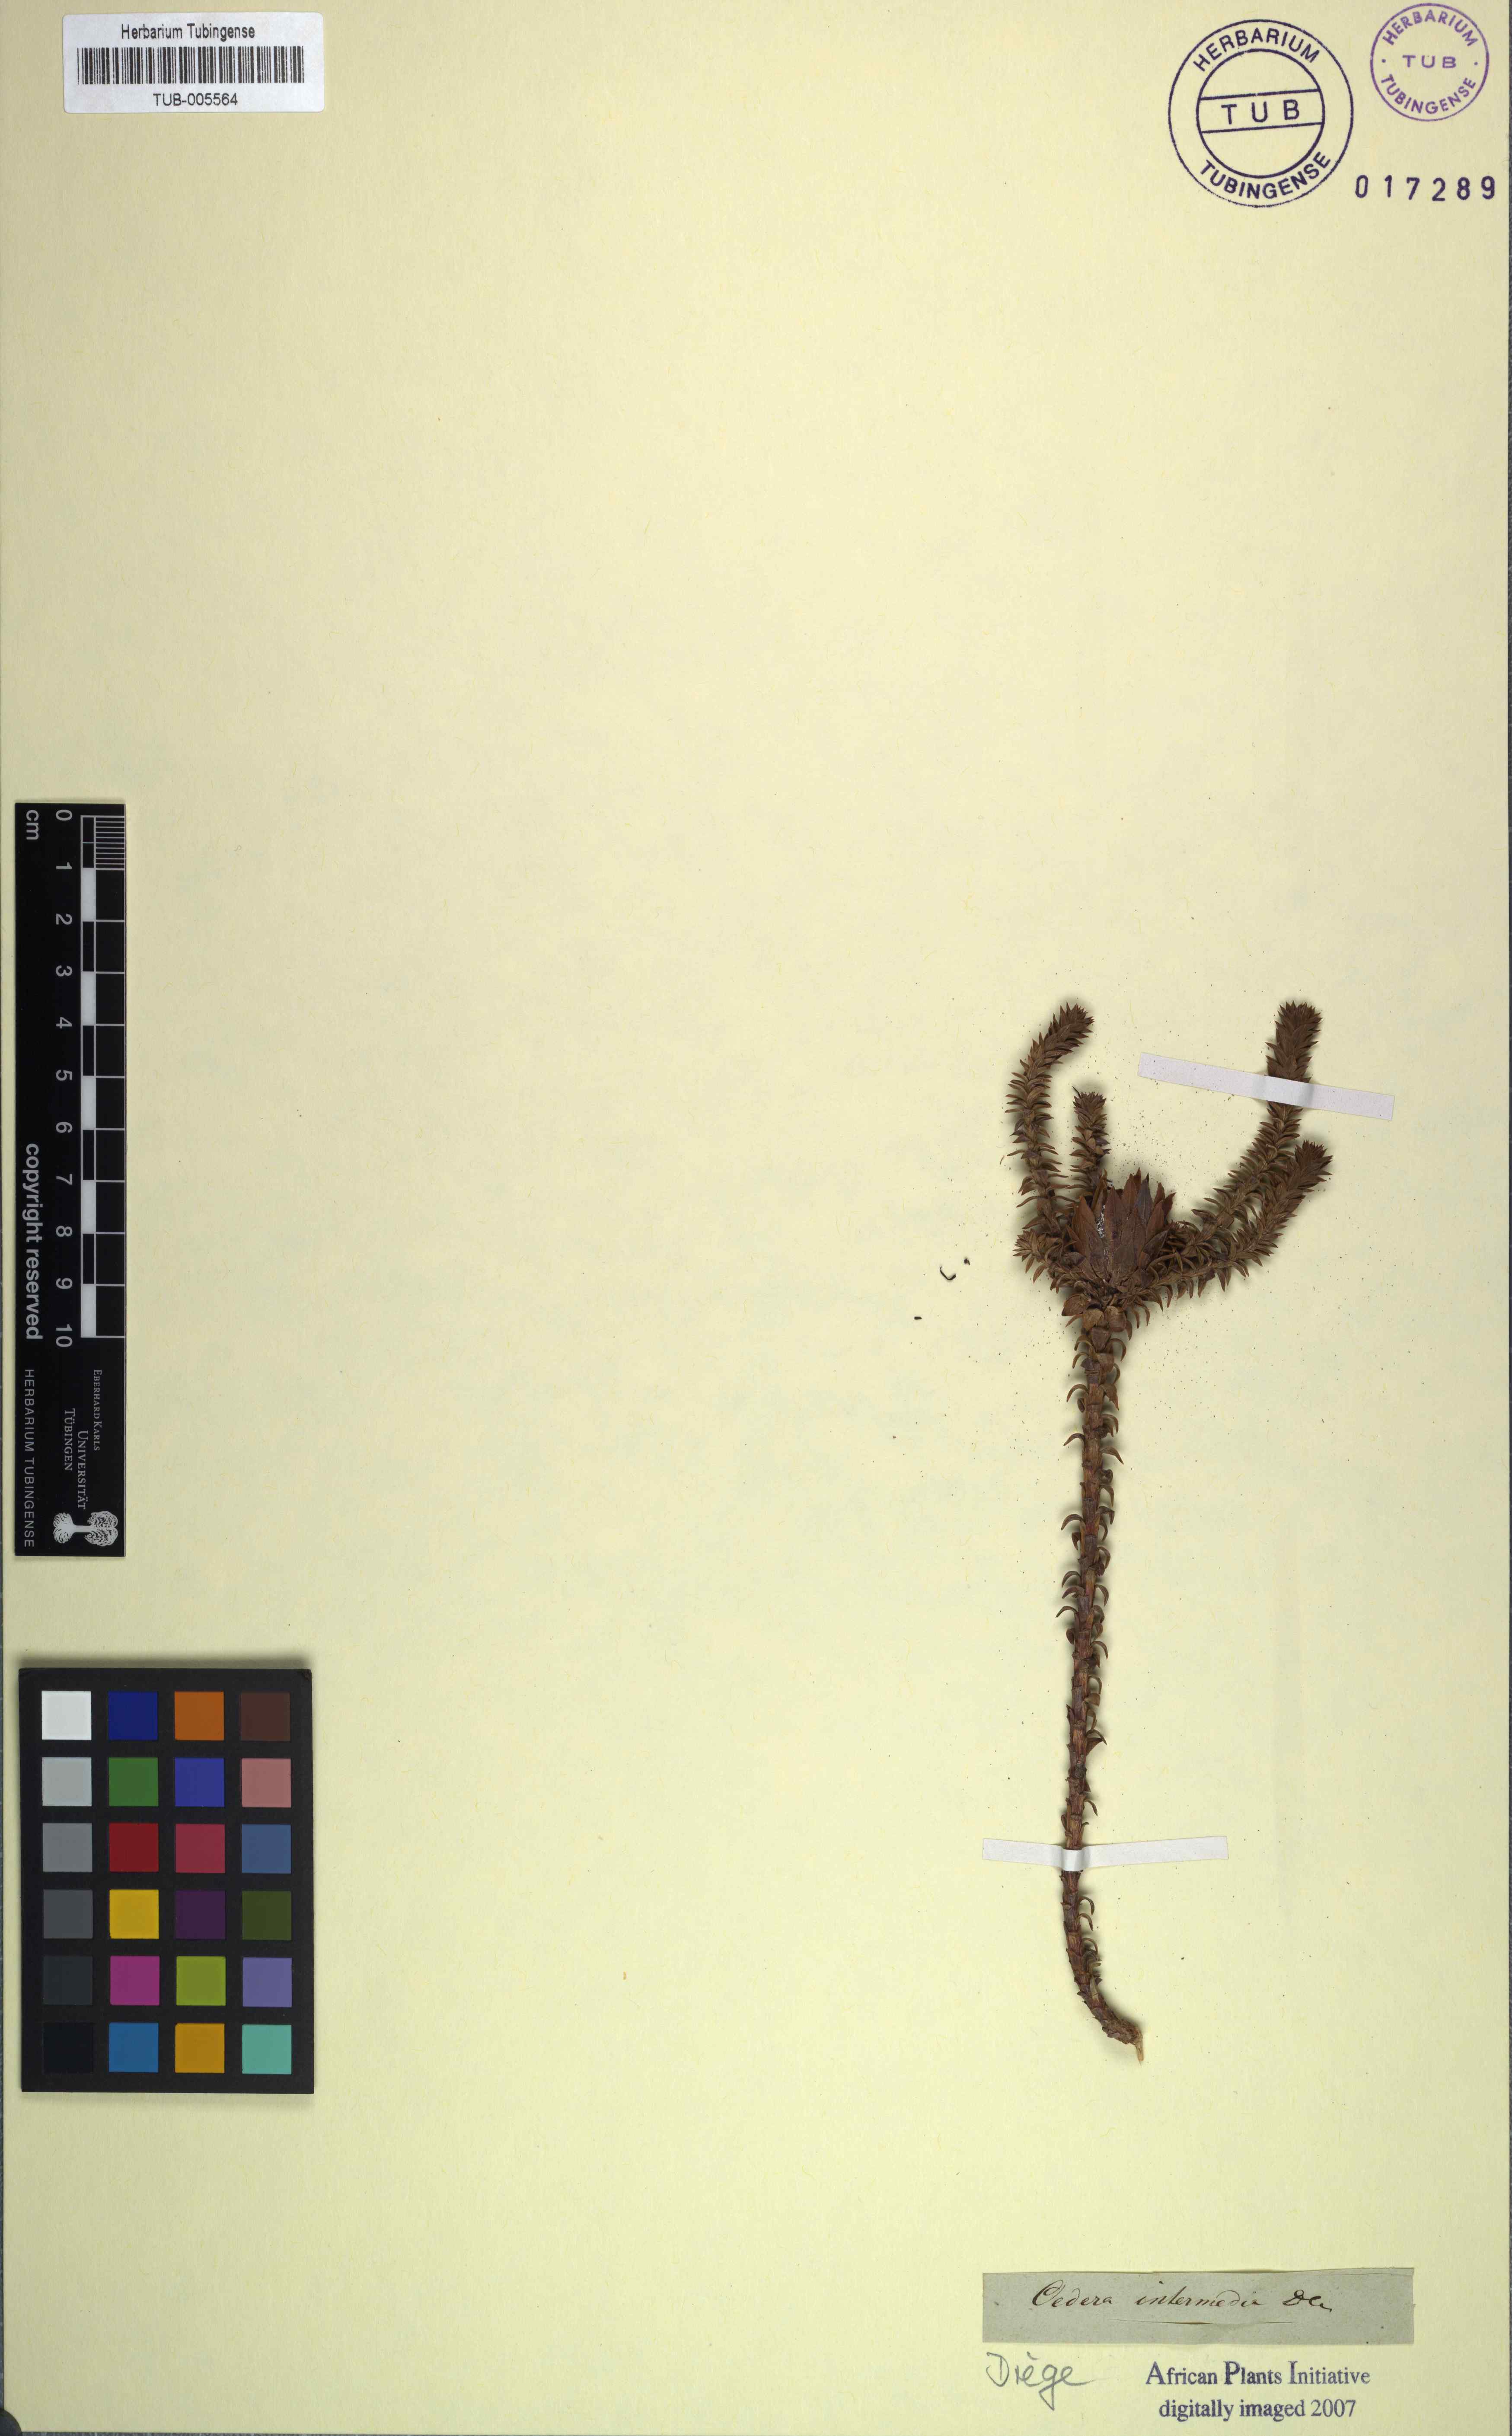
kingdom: Plantae
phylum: Tracheophyta
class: Magnoliopsida
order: Asterales
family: Asteraceae
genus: Oedera
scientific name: Oedera imbricata
